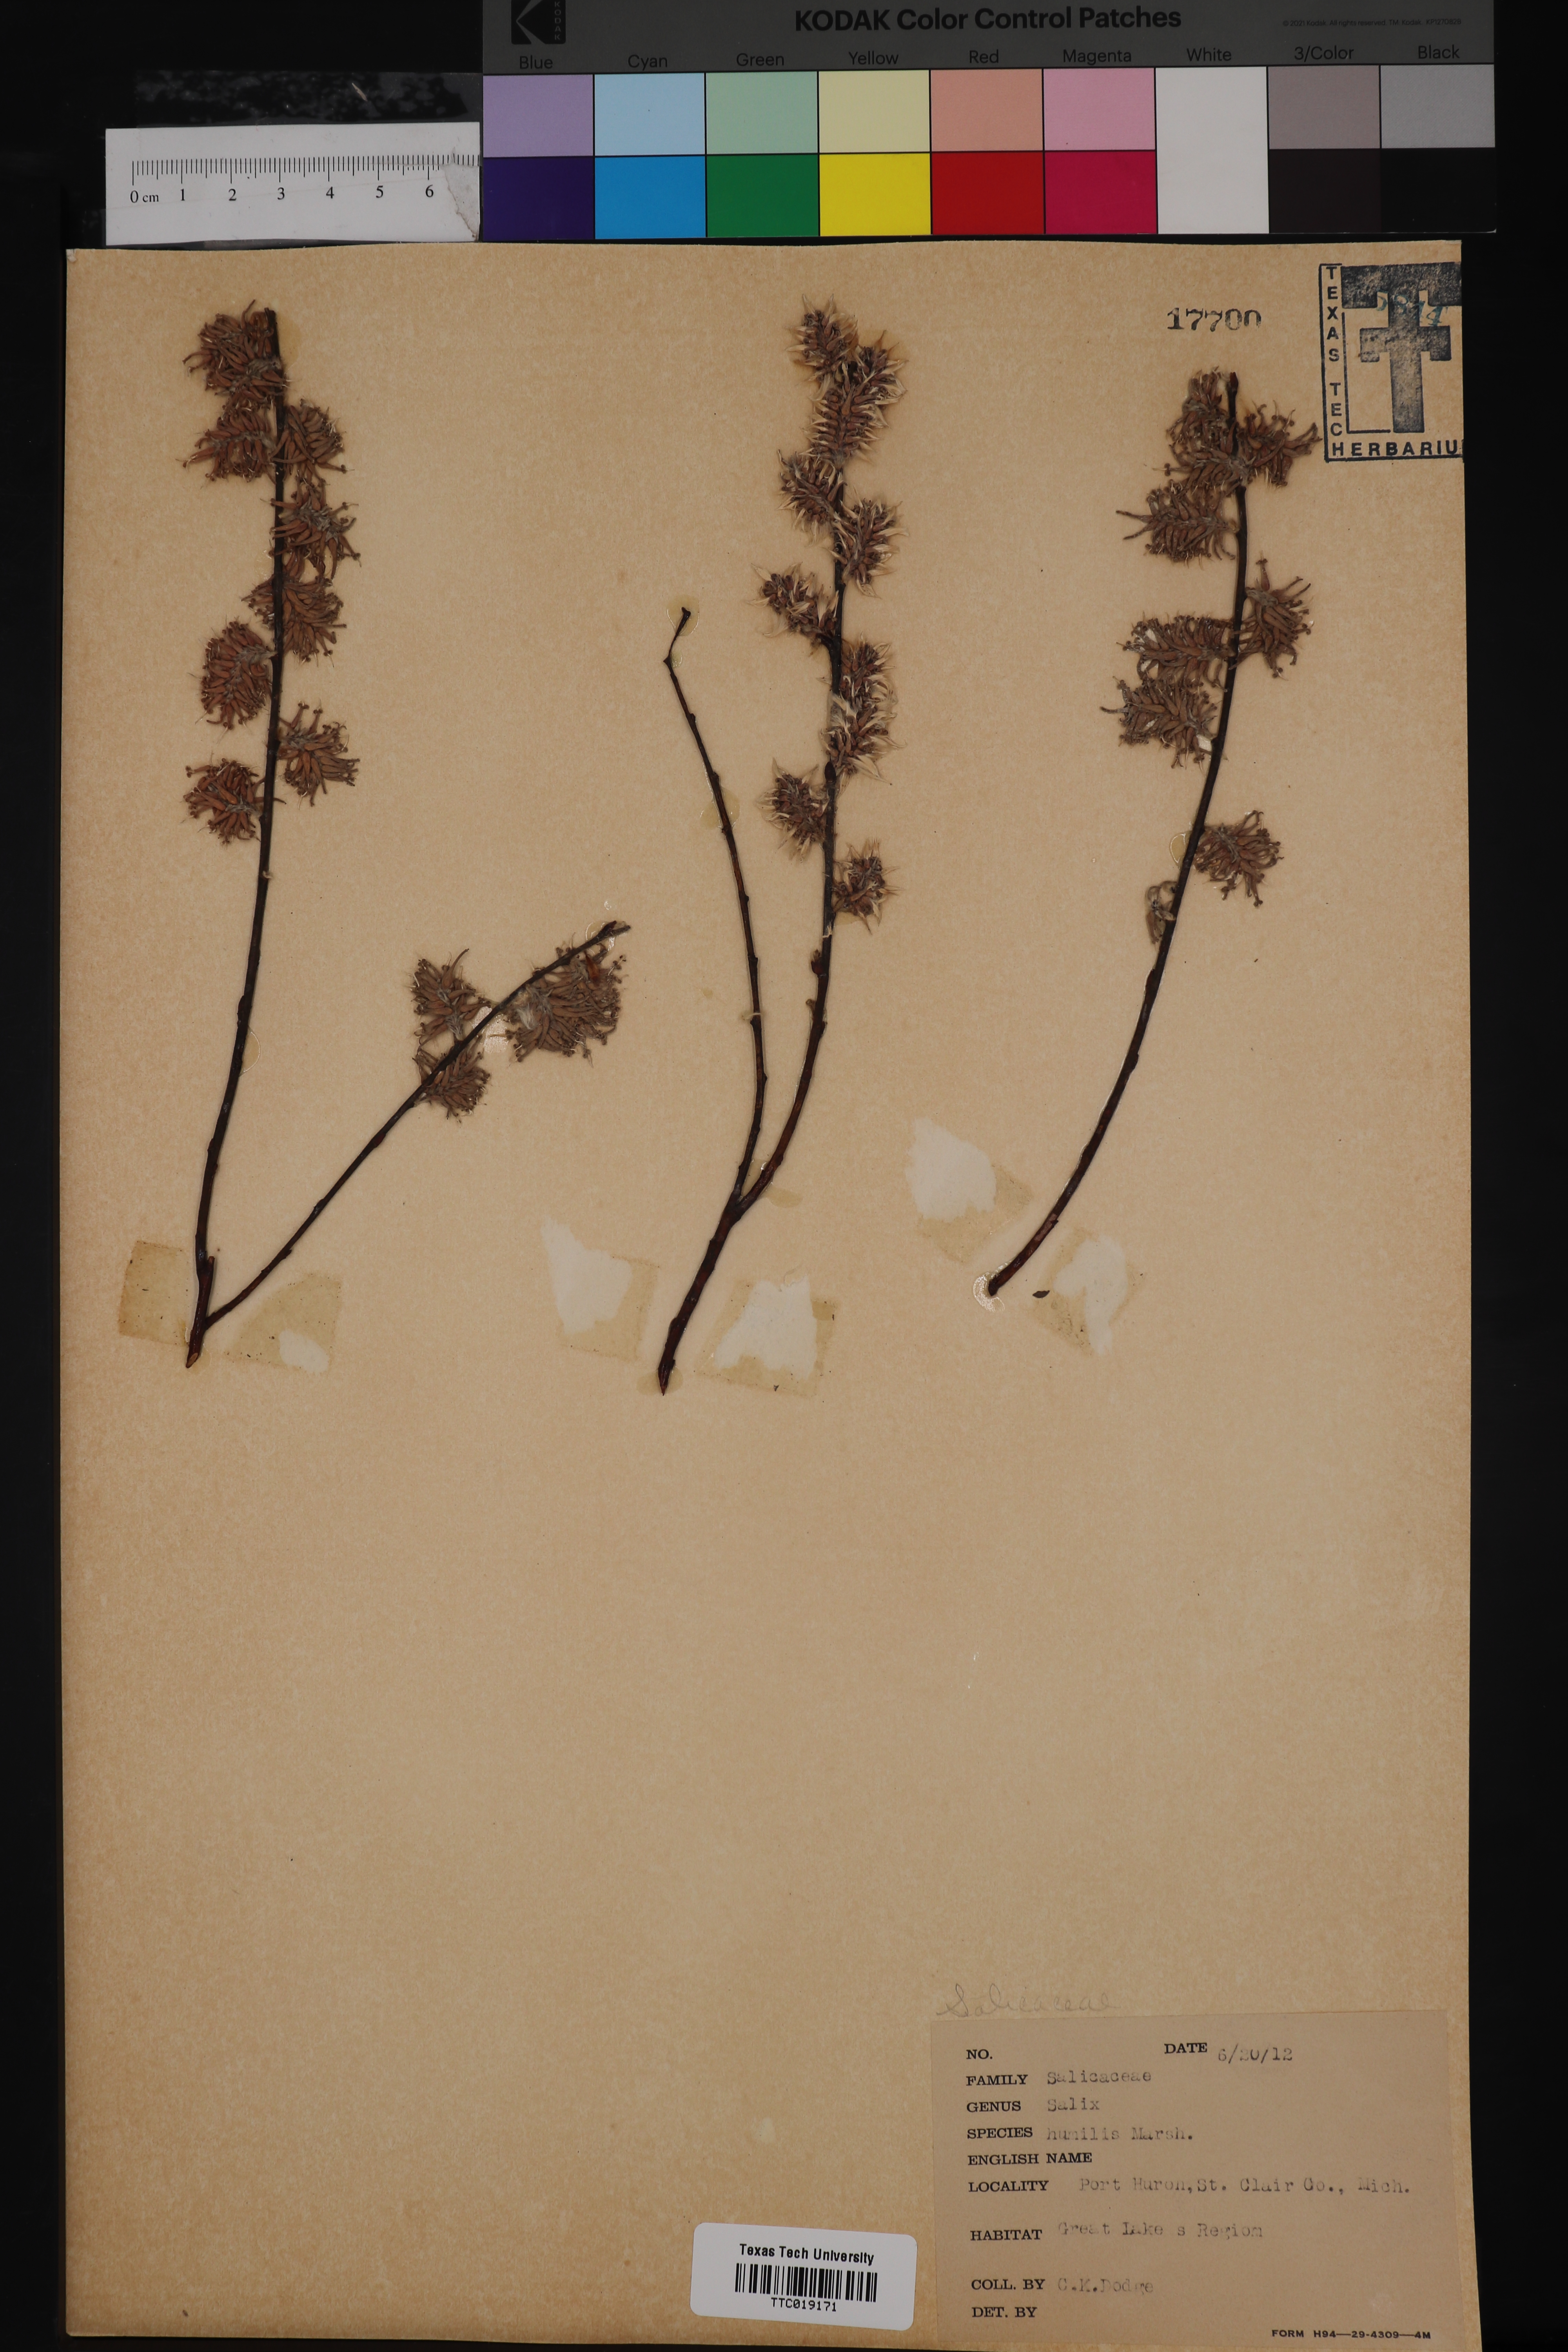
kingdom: Plantae
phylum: Tracheophyta
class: Magnoliopsida
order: Malpighiales
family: Salicaceae
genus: Salix
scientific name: Salix humilis
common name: Prairie willow
